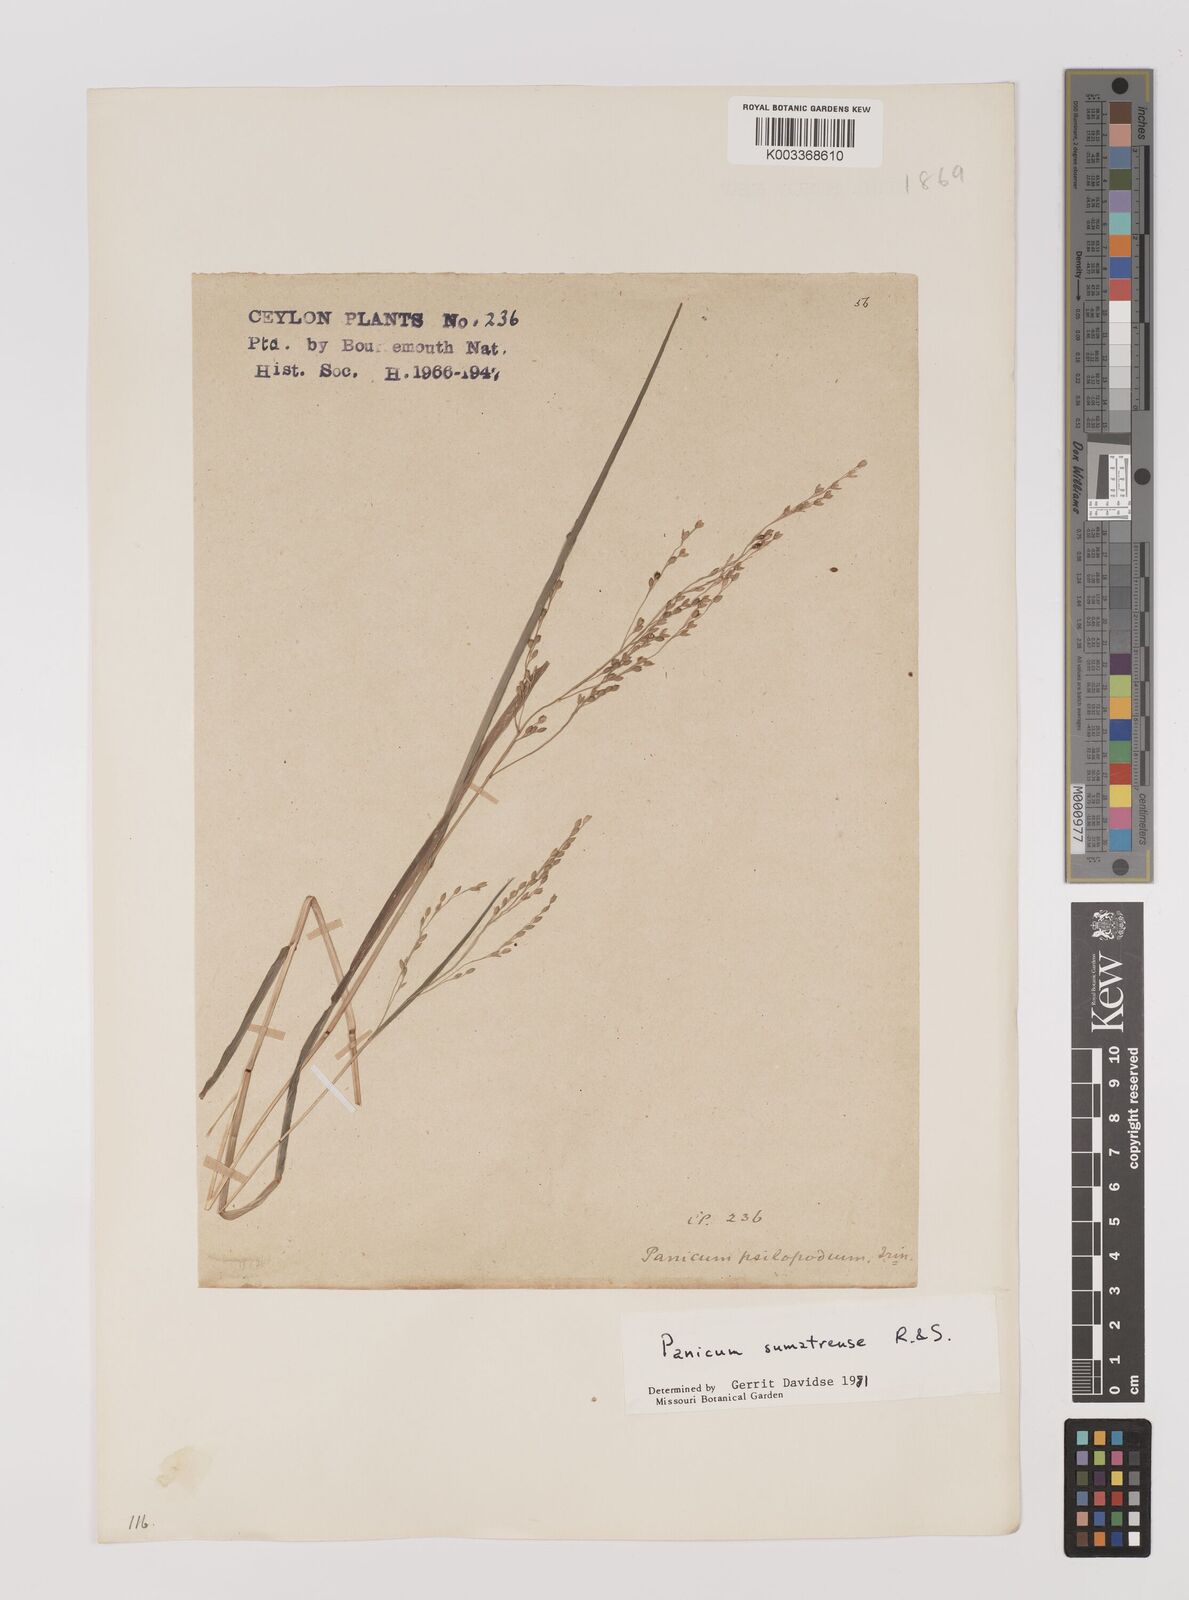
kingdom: Plantae
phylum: Tracheophyta
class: Liliopsida
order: Poales
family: Poaceae
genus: Panicum
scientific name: Panicum sumatrense
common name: Little millet
